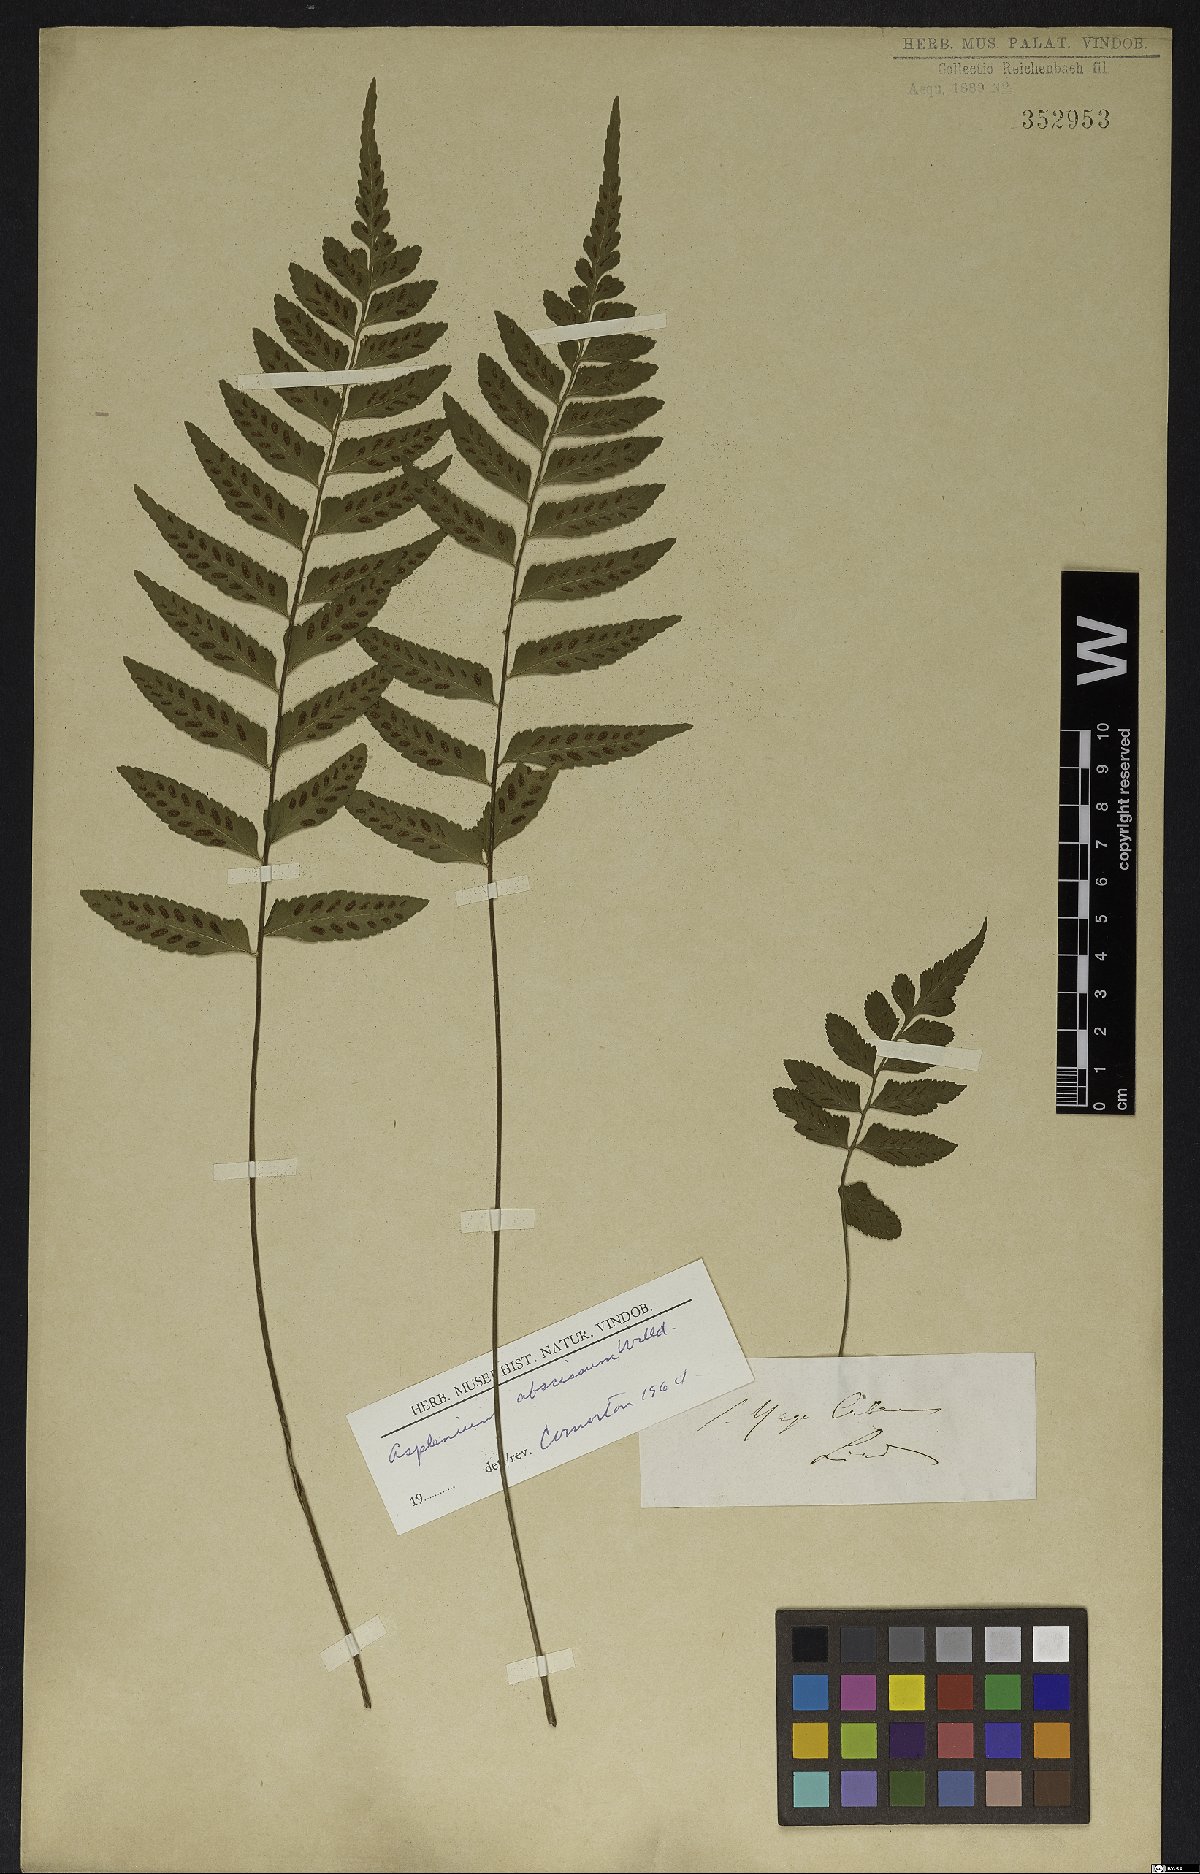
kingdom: Plantae
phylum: Tracheophyta
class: Polypodiopsida
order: Polypodiales
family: Aspleniaceae
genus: Asplenium
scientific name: Asplenium abscissum
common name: Cutleaf spleenwort
